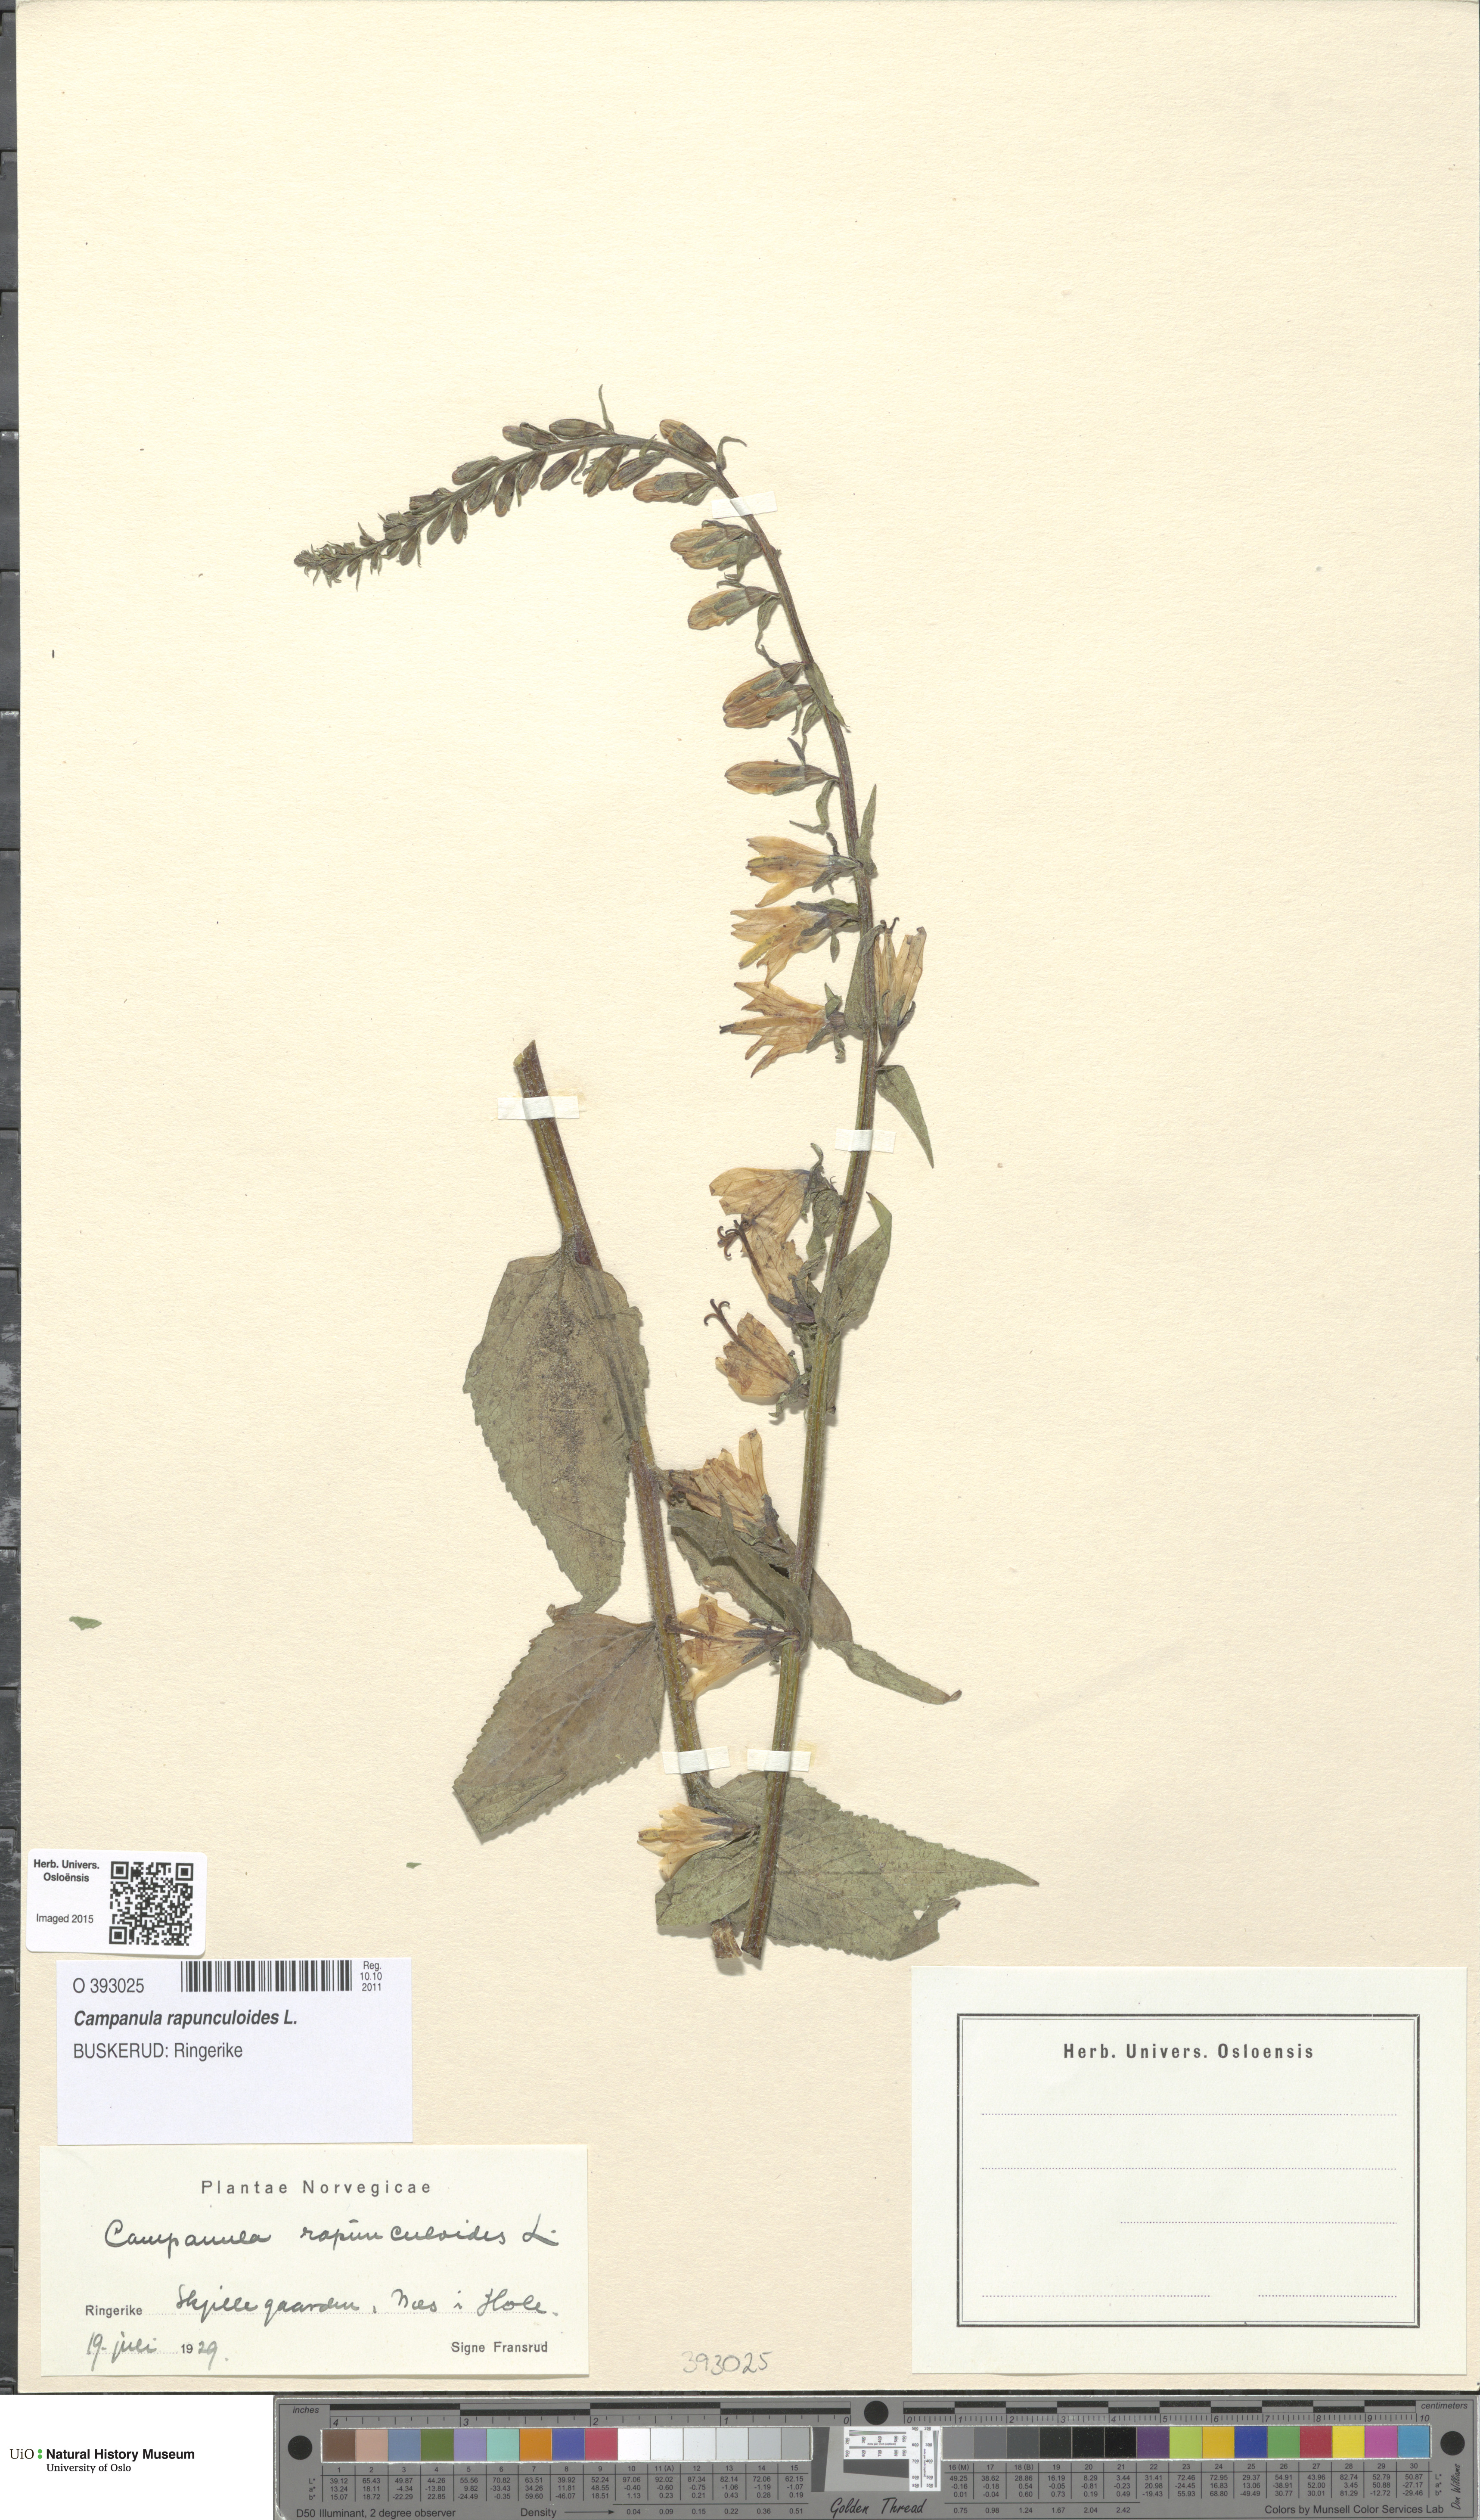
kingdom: Plantae
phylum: Tracheophyta
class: Magnoliopsida
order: Asterales
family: Campanulaceae
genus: Campanula
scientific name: Campanula rapunculoides
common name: Creeping bellflower
